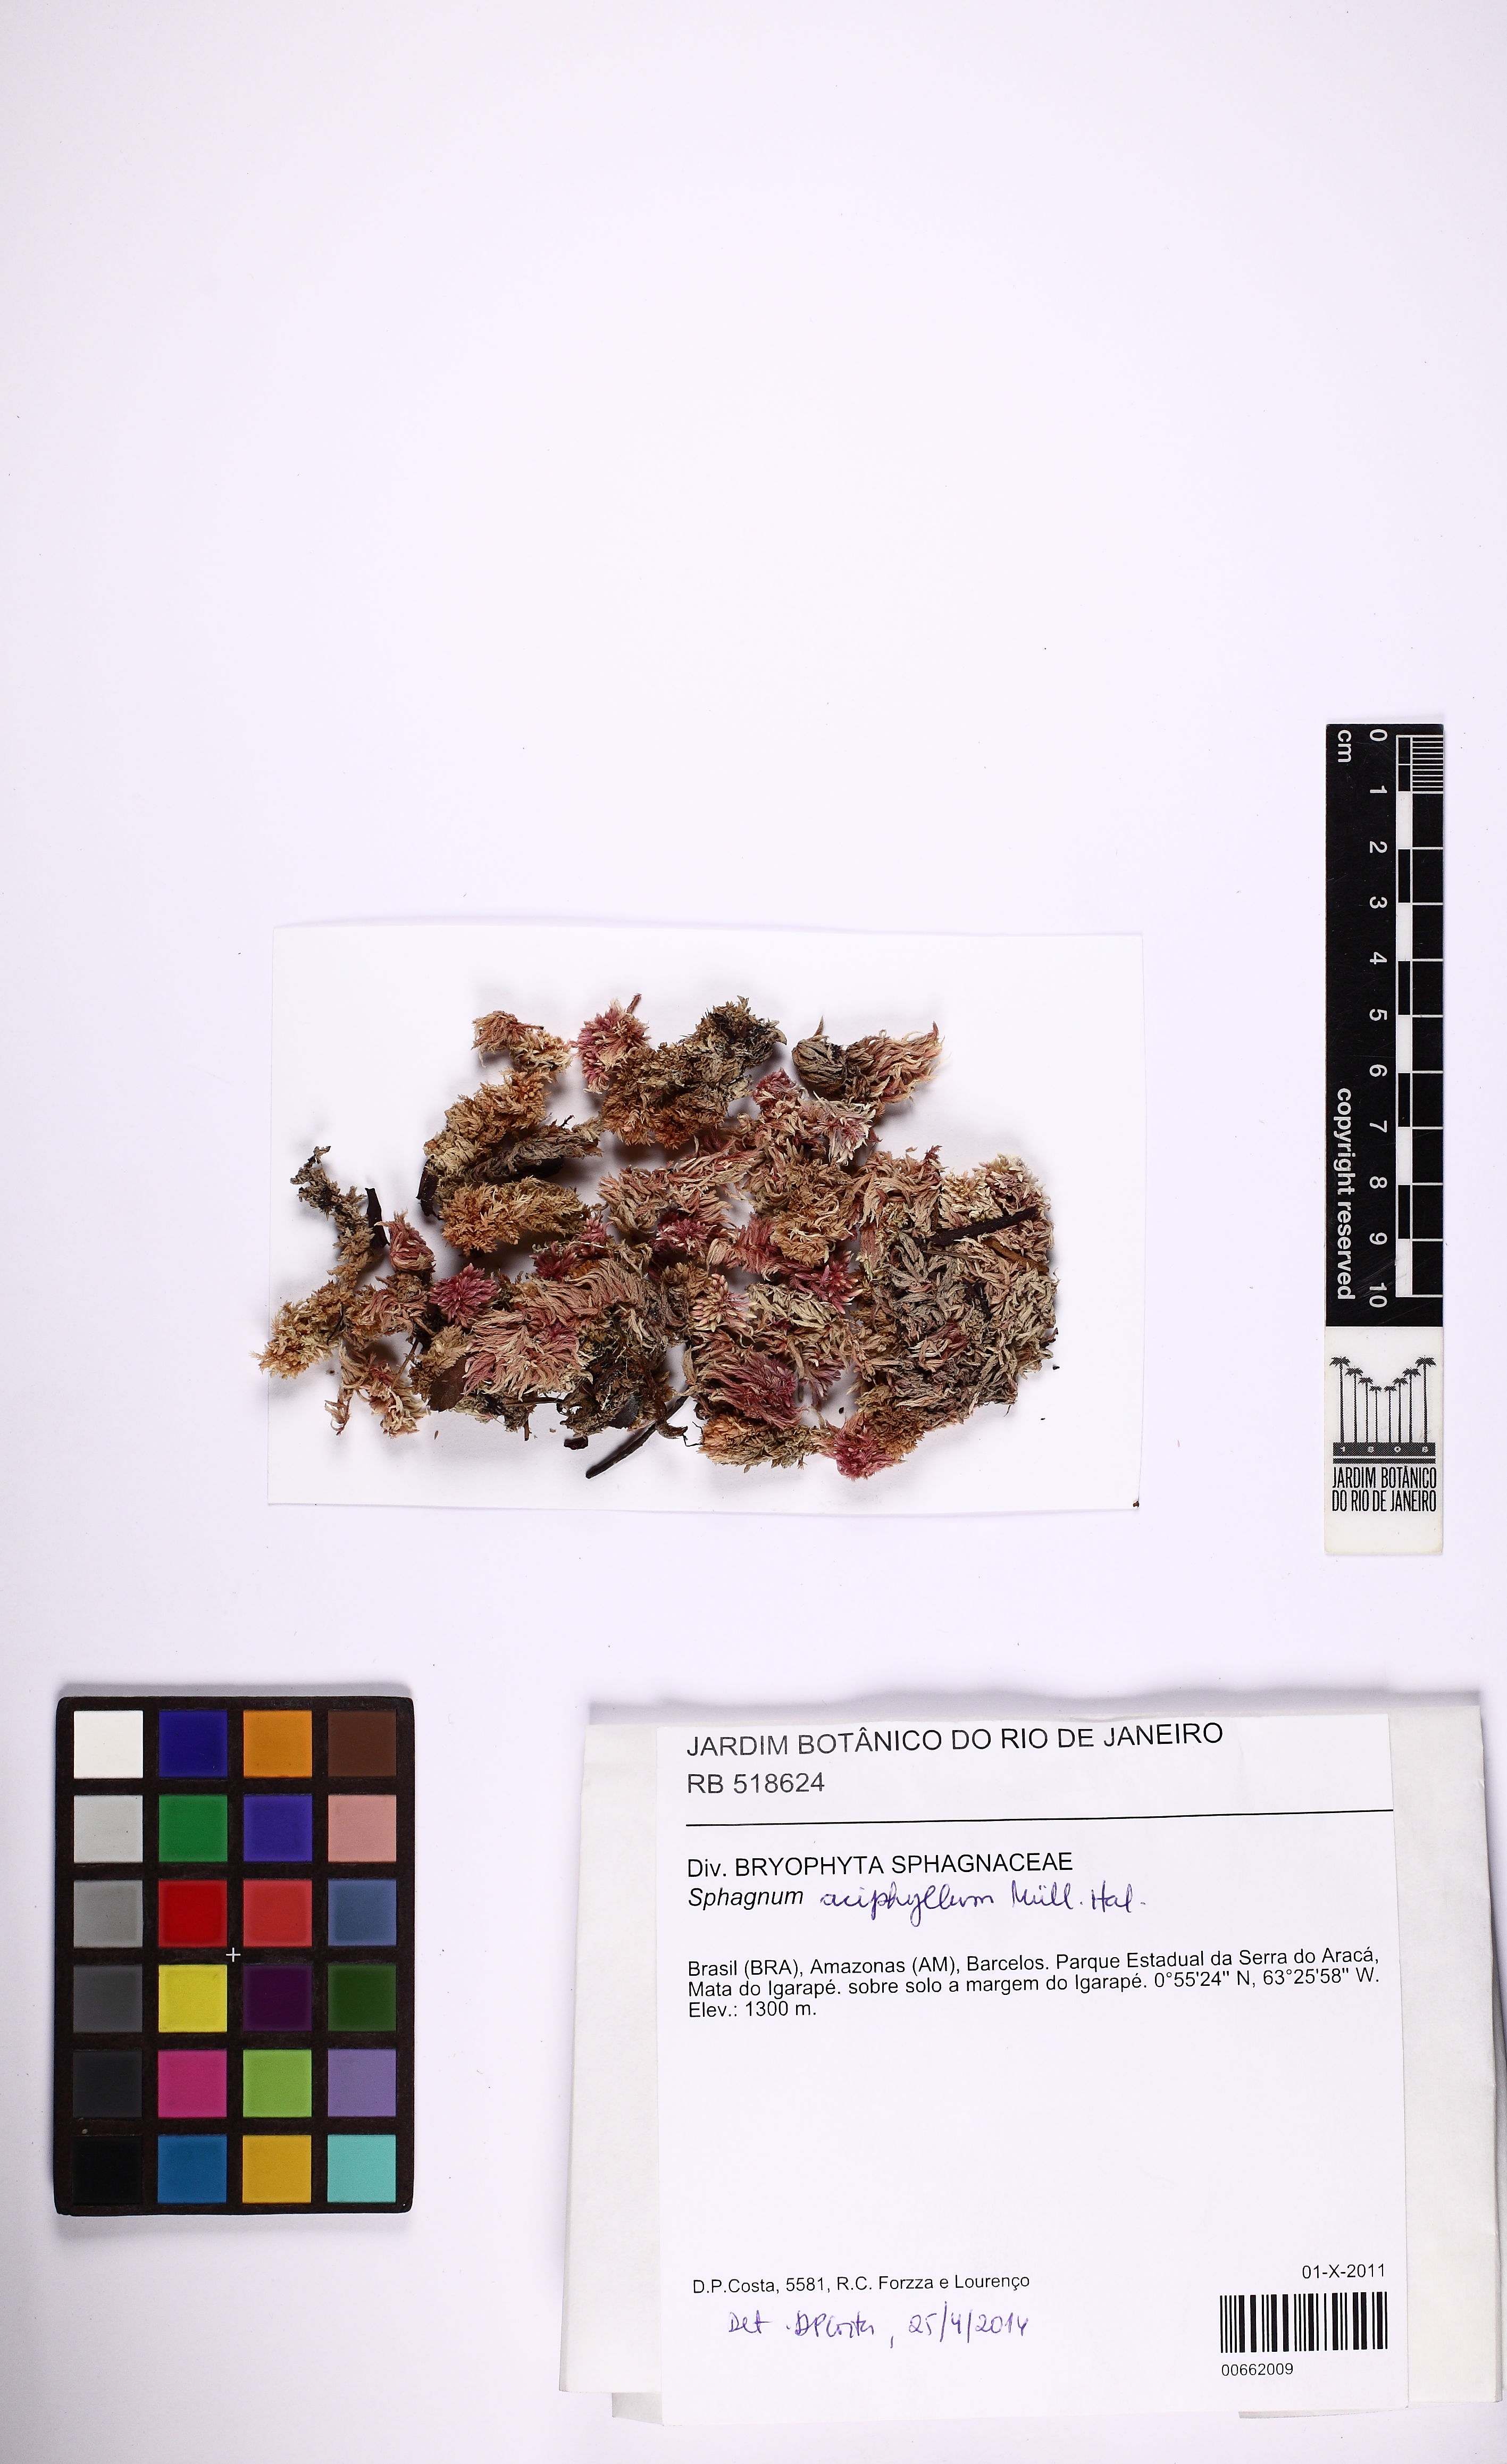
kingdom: Plantae
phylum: Bryophyta
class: Sphagnopsida
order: Sphagnales
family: Sphagnaceae
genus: Sphagnum
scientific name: Sphagnum aciphyllum
